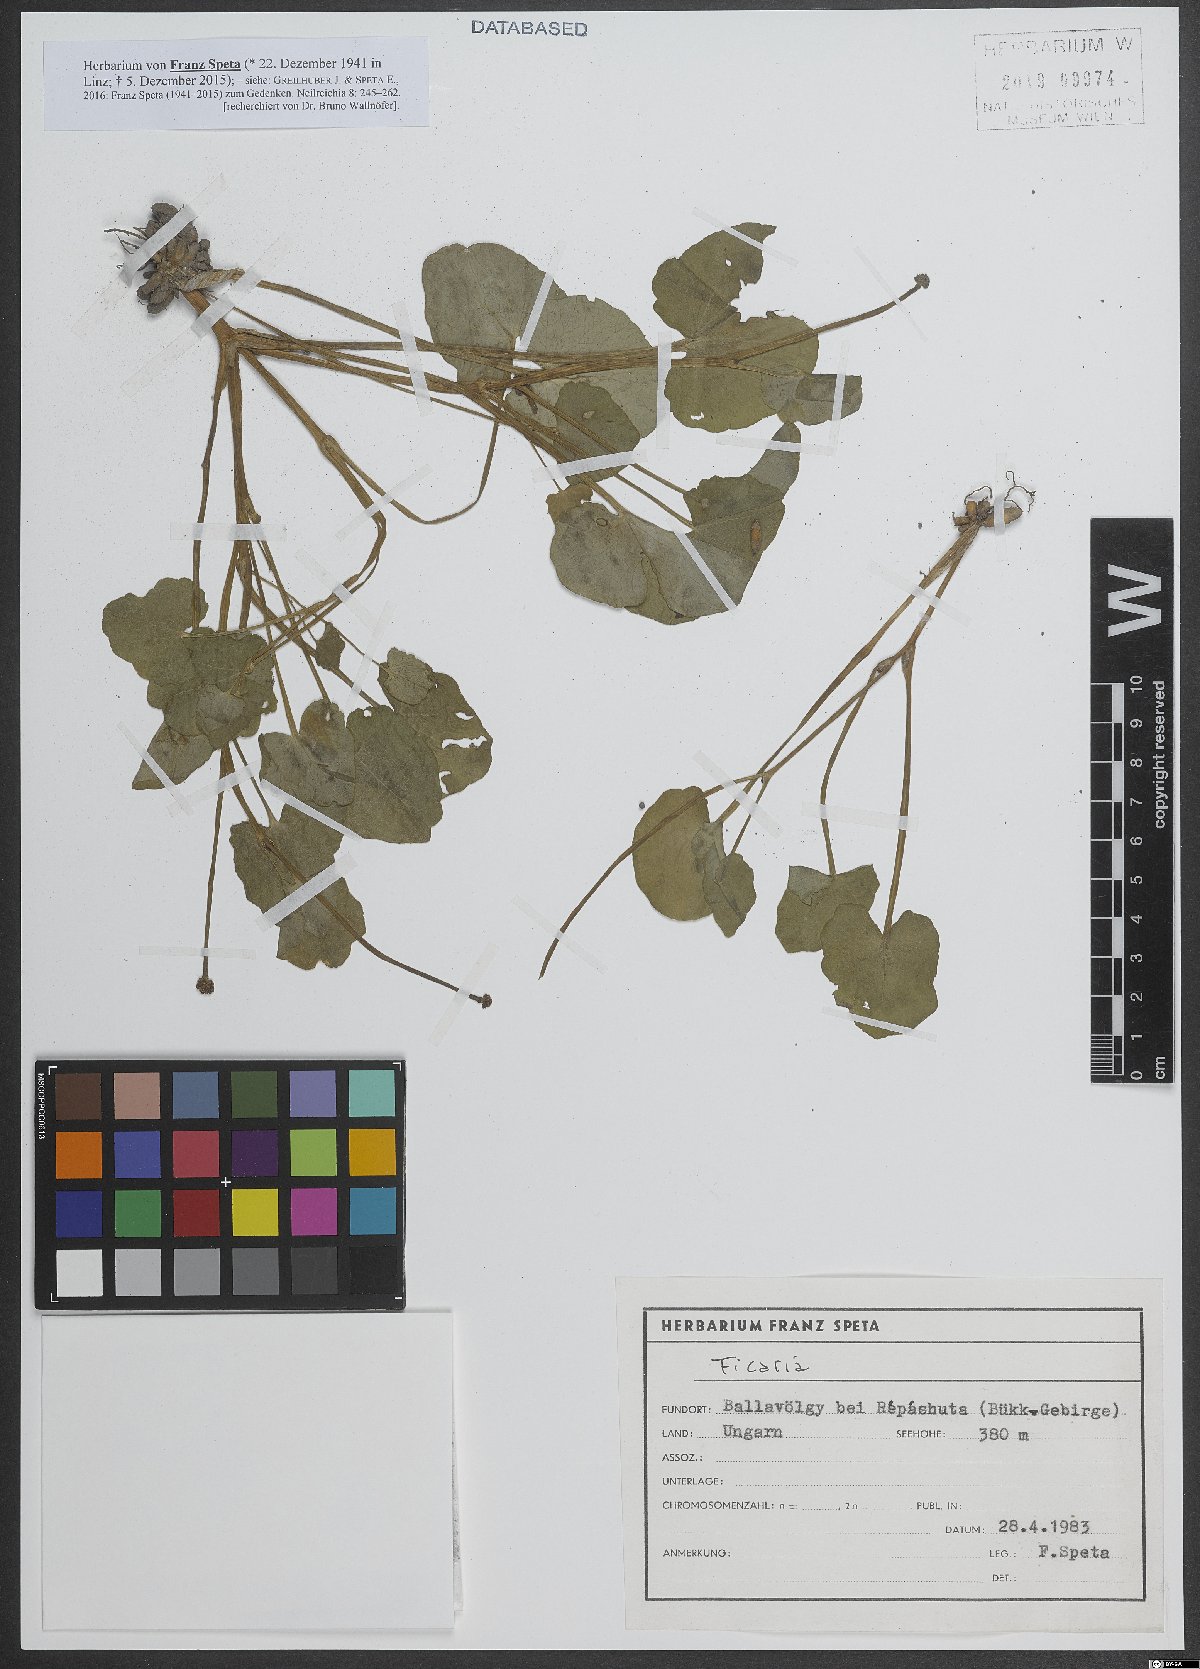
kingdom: Plantae
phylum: Tracheophyta
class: Magnoliopsida
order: Ranunculales
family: Ranunculaceae
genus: Ficaria
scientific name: Ficaria
